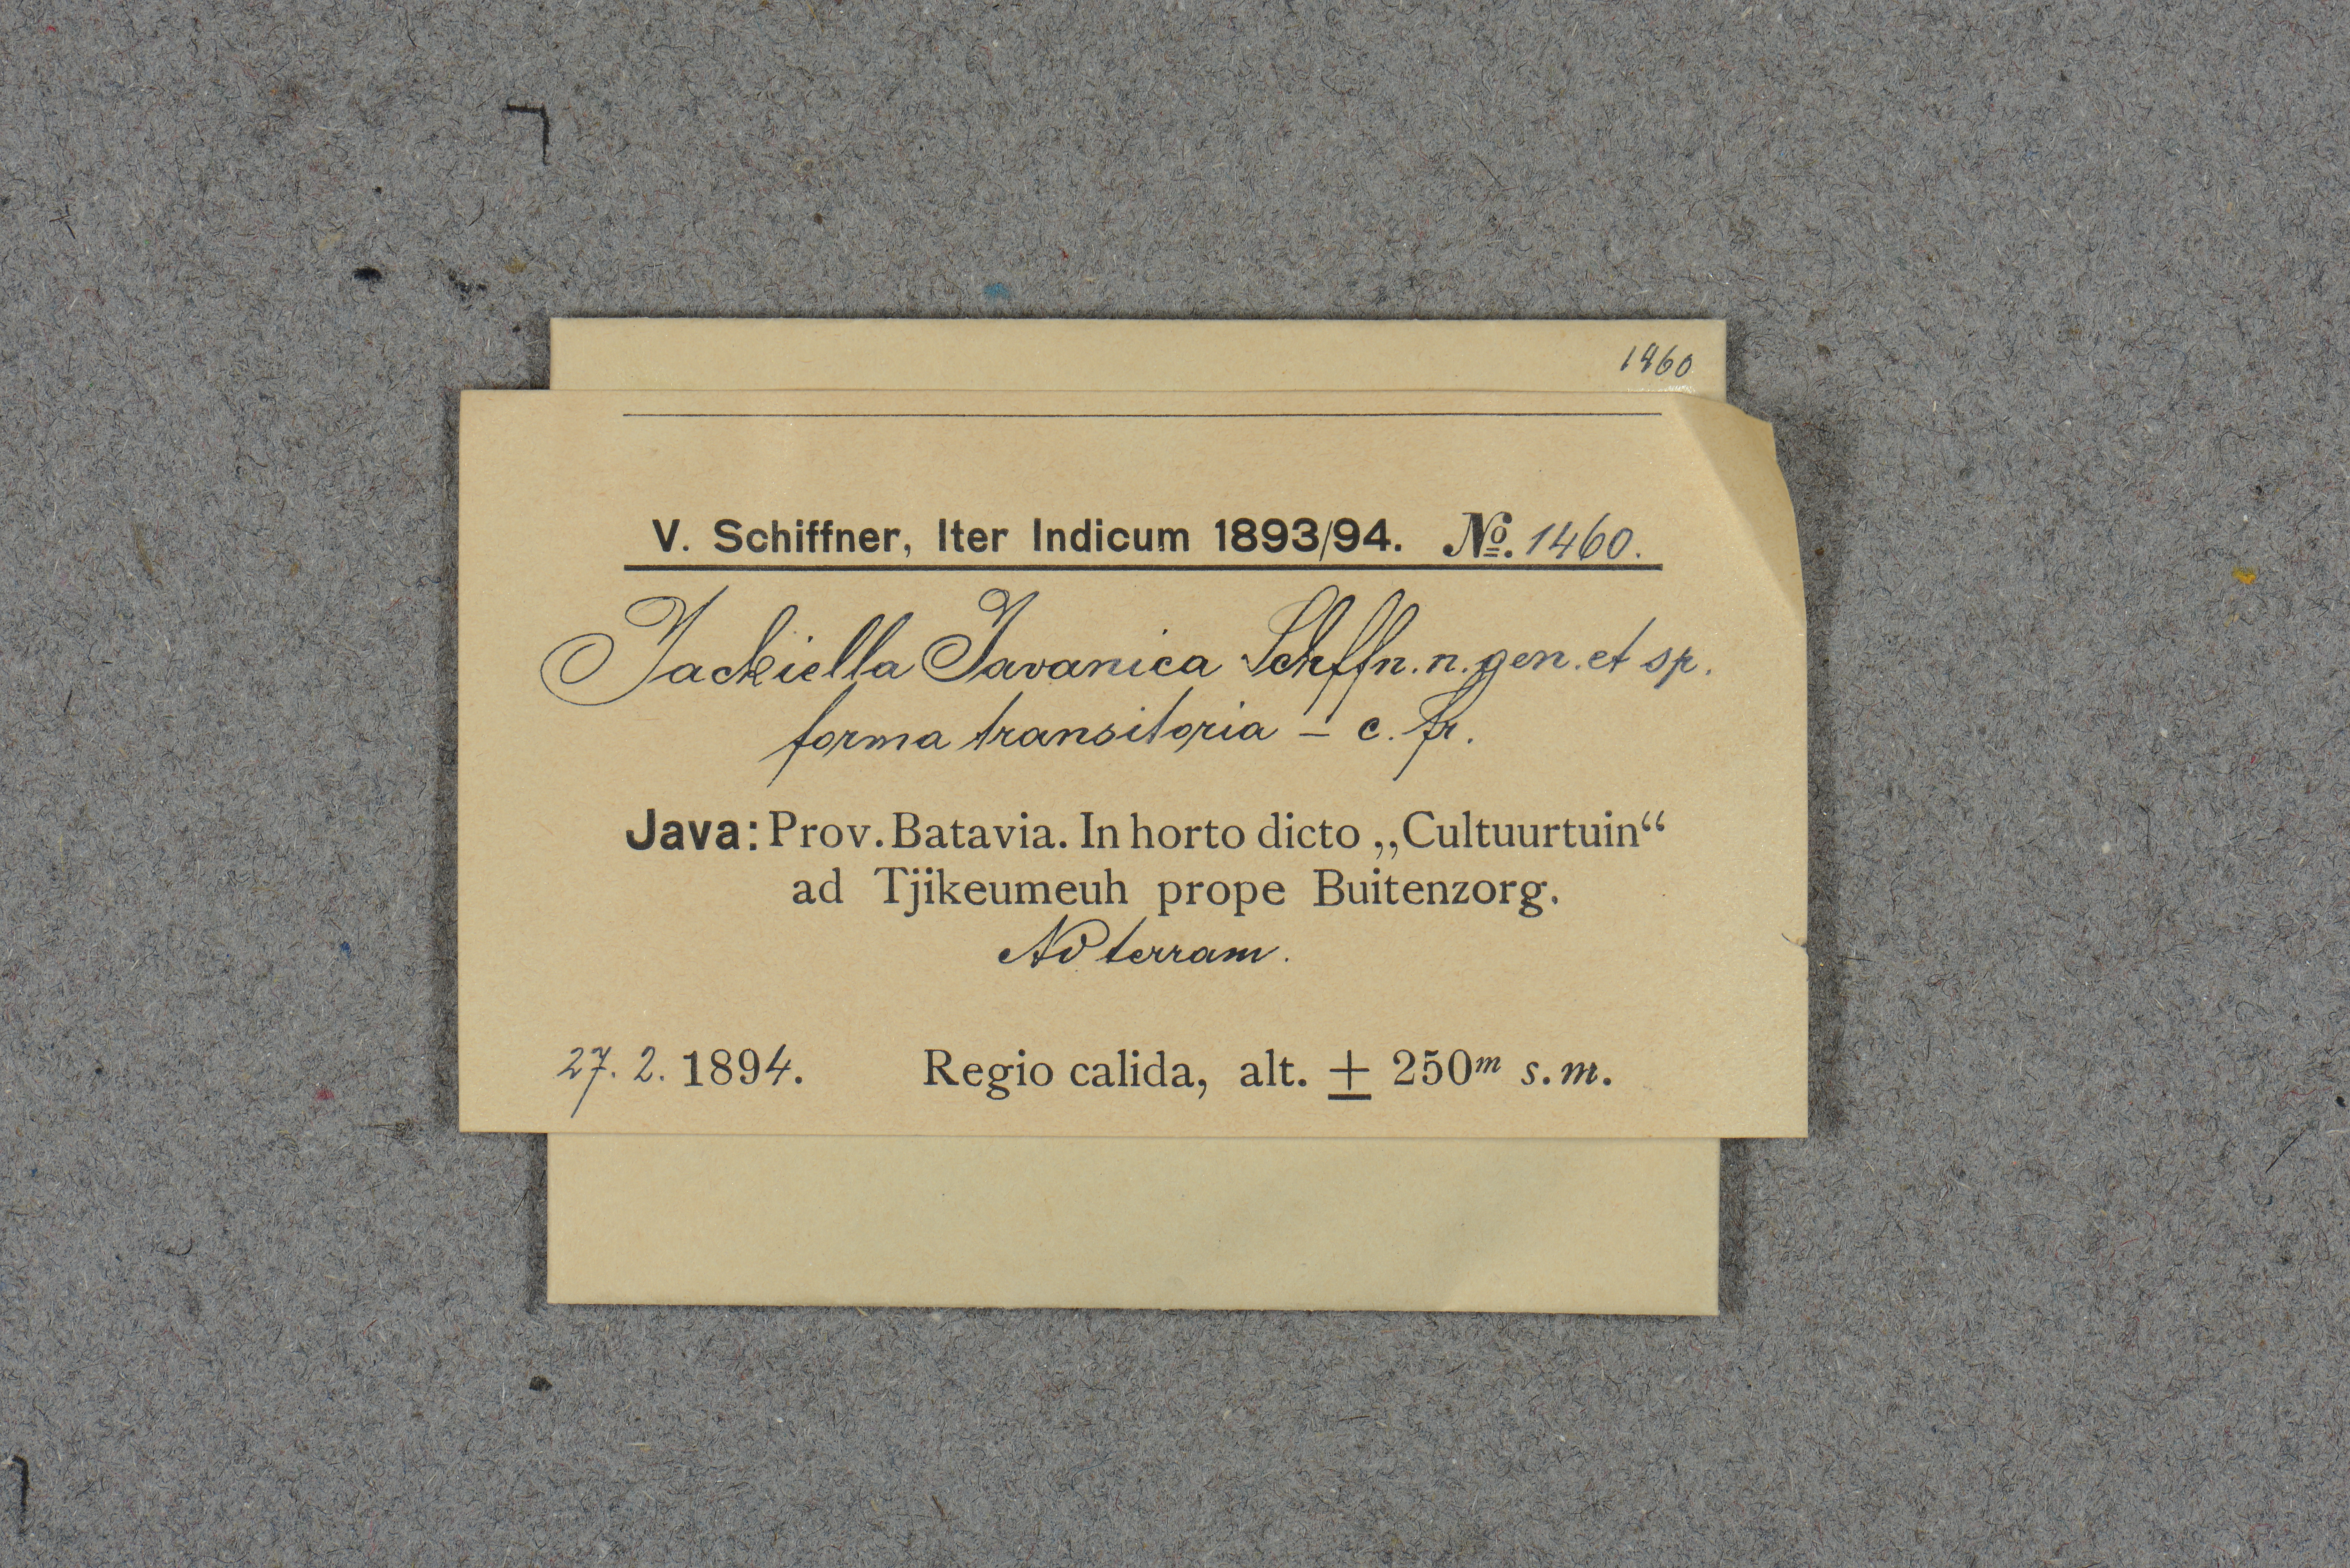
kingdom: Plantae
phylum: Marchantiophyta
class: Jungermanniopsida
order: Jungermanniales
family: Jackiellaceae
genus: Jackiella
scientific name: Jackiella javanica
